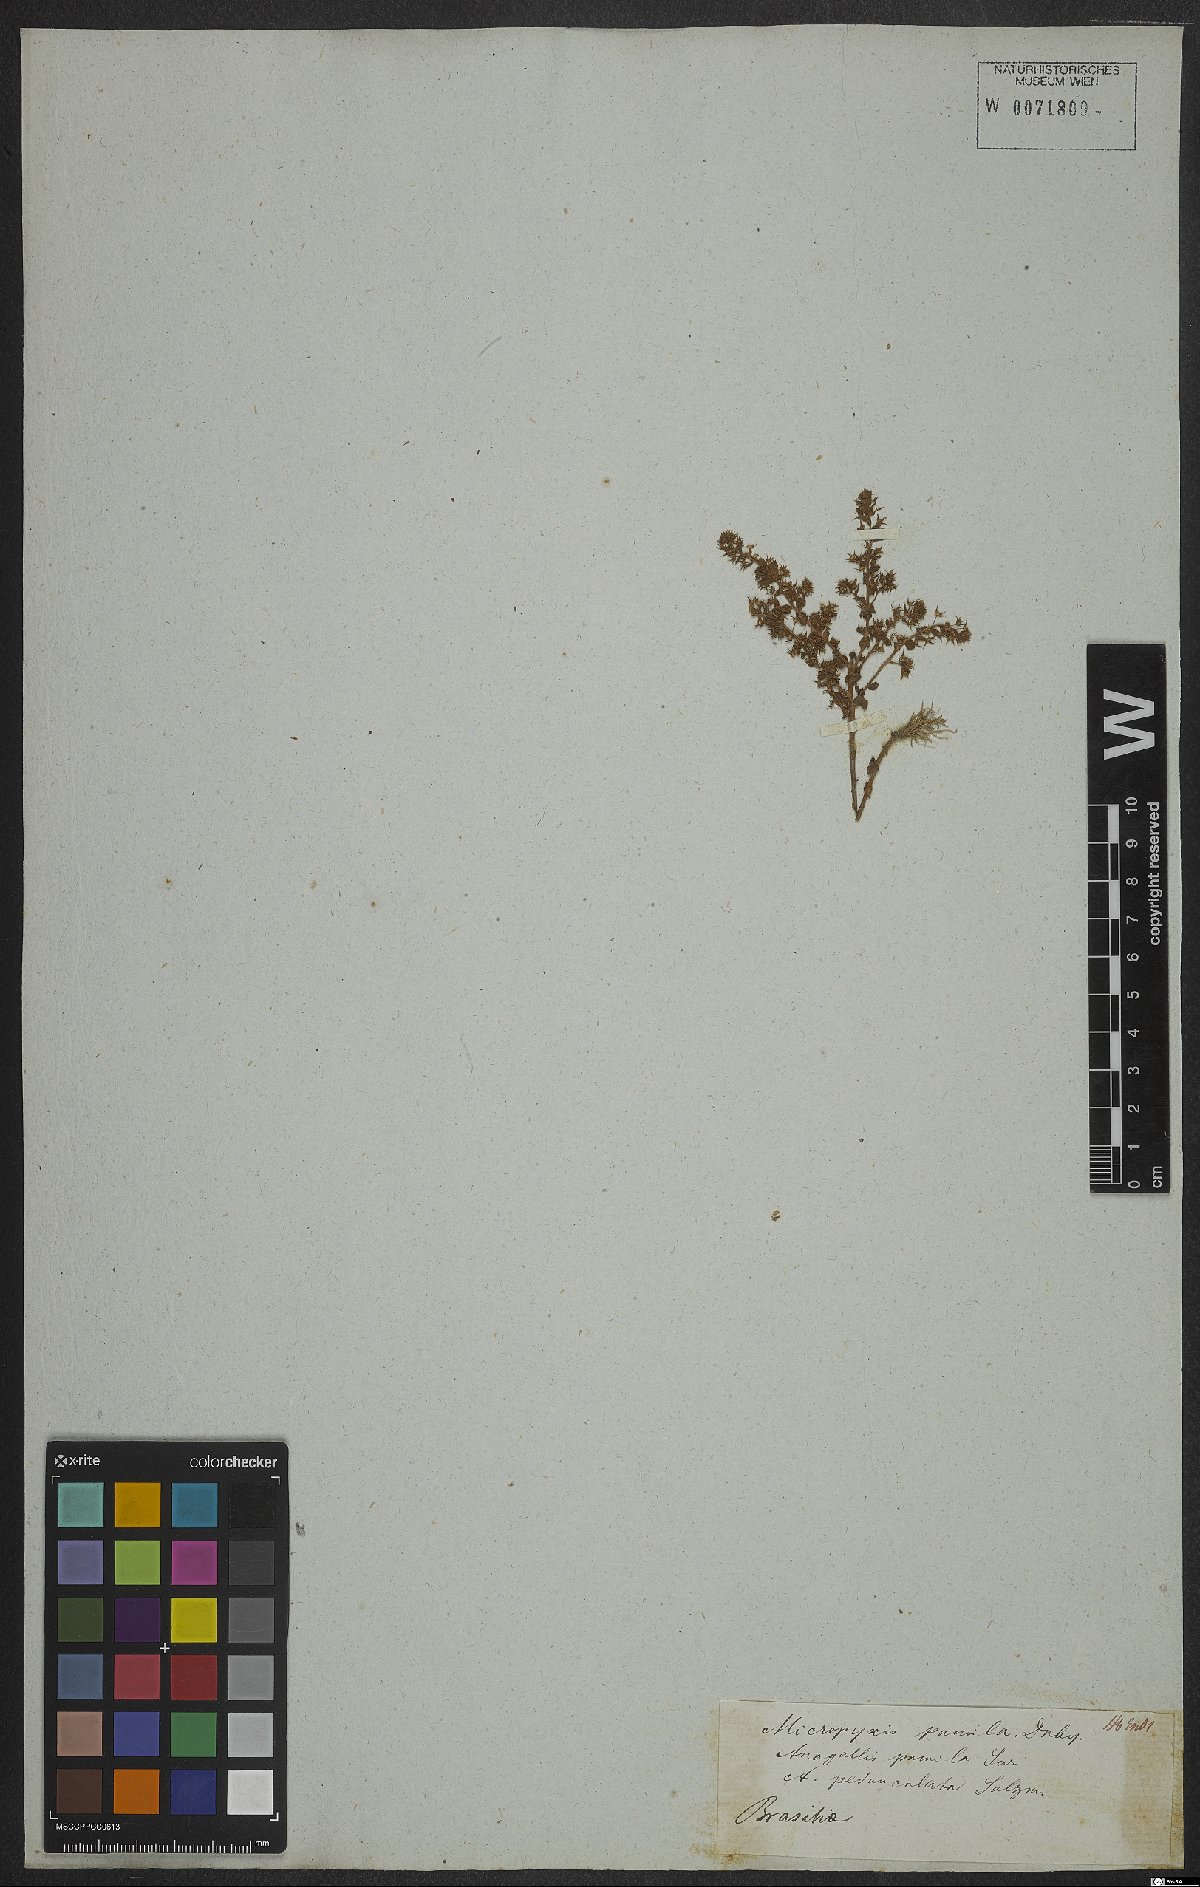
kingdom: Plantae
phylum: Tracheophyta
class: Magnoliopsida
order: Ericales
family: Primulaceae
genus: Lysimachia
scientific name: Lysimachia ovalis
